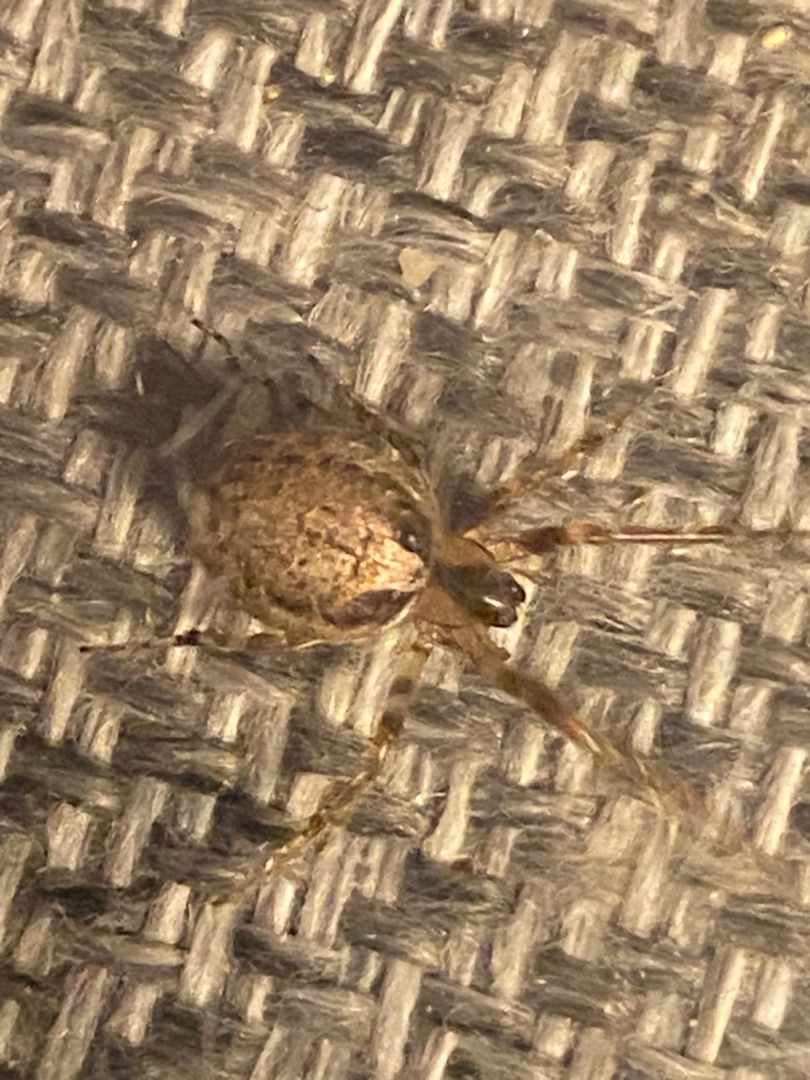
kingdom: Animalia
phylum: Arthropoda
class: Arachnida
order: Araneae
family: Araneidae
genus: Zygiella
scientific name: Zygiella x-notata
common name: Grå sektoredderkop
